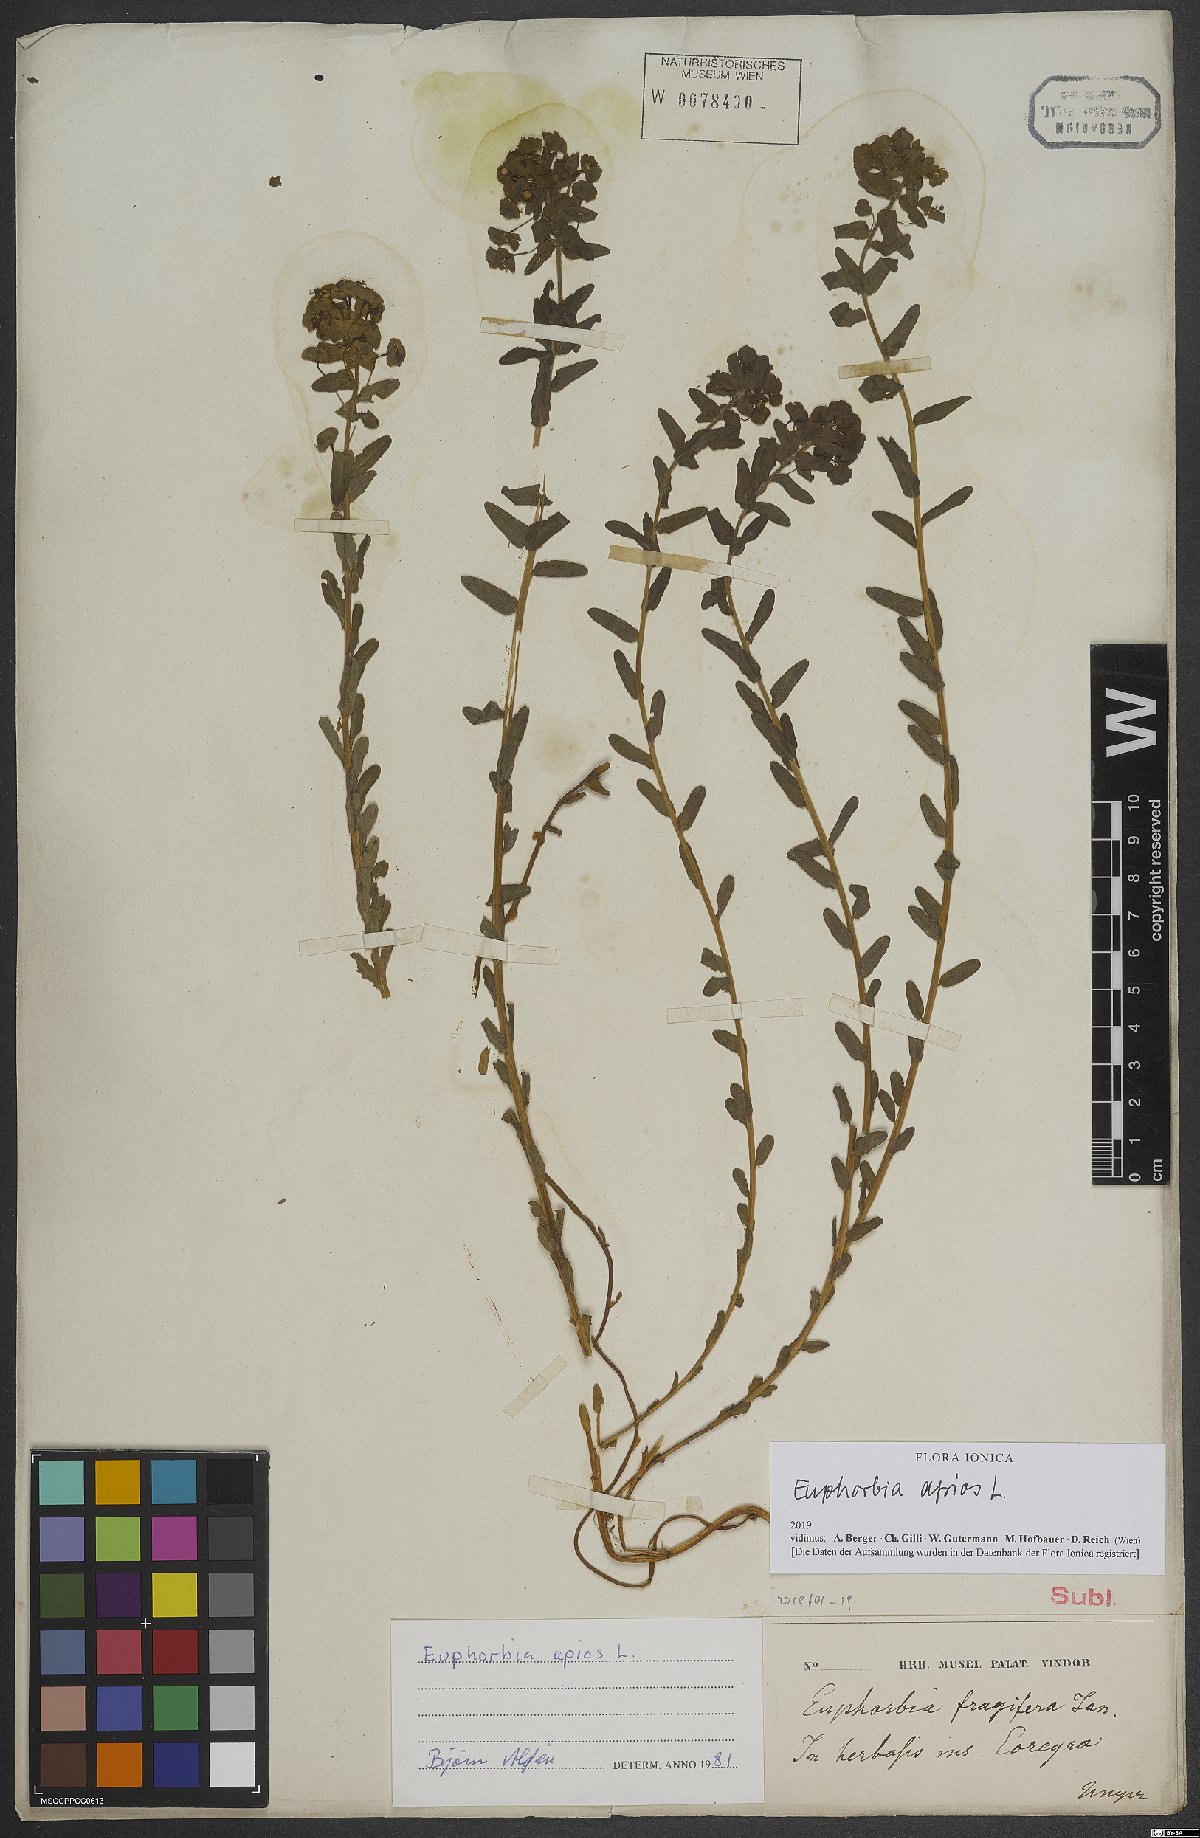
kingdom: Plantae
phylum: Tracheophyta
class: Magnoliopsida
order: Malpighiales
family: Euphorbiaceae
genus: Euphorbia
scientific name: Euphorbia apios
